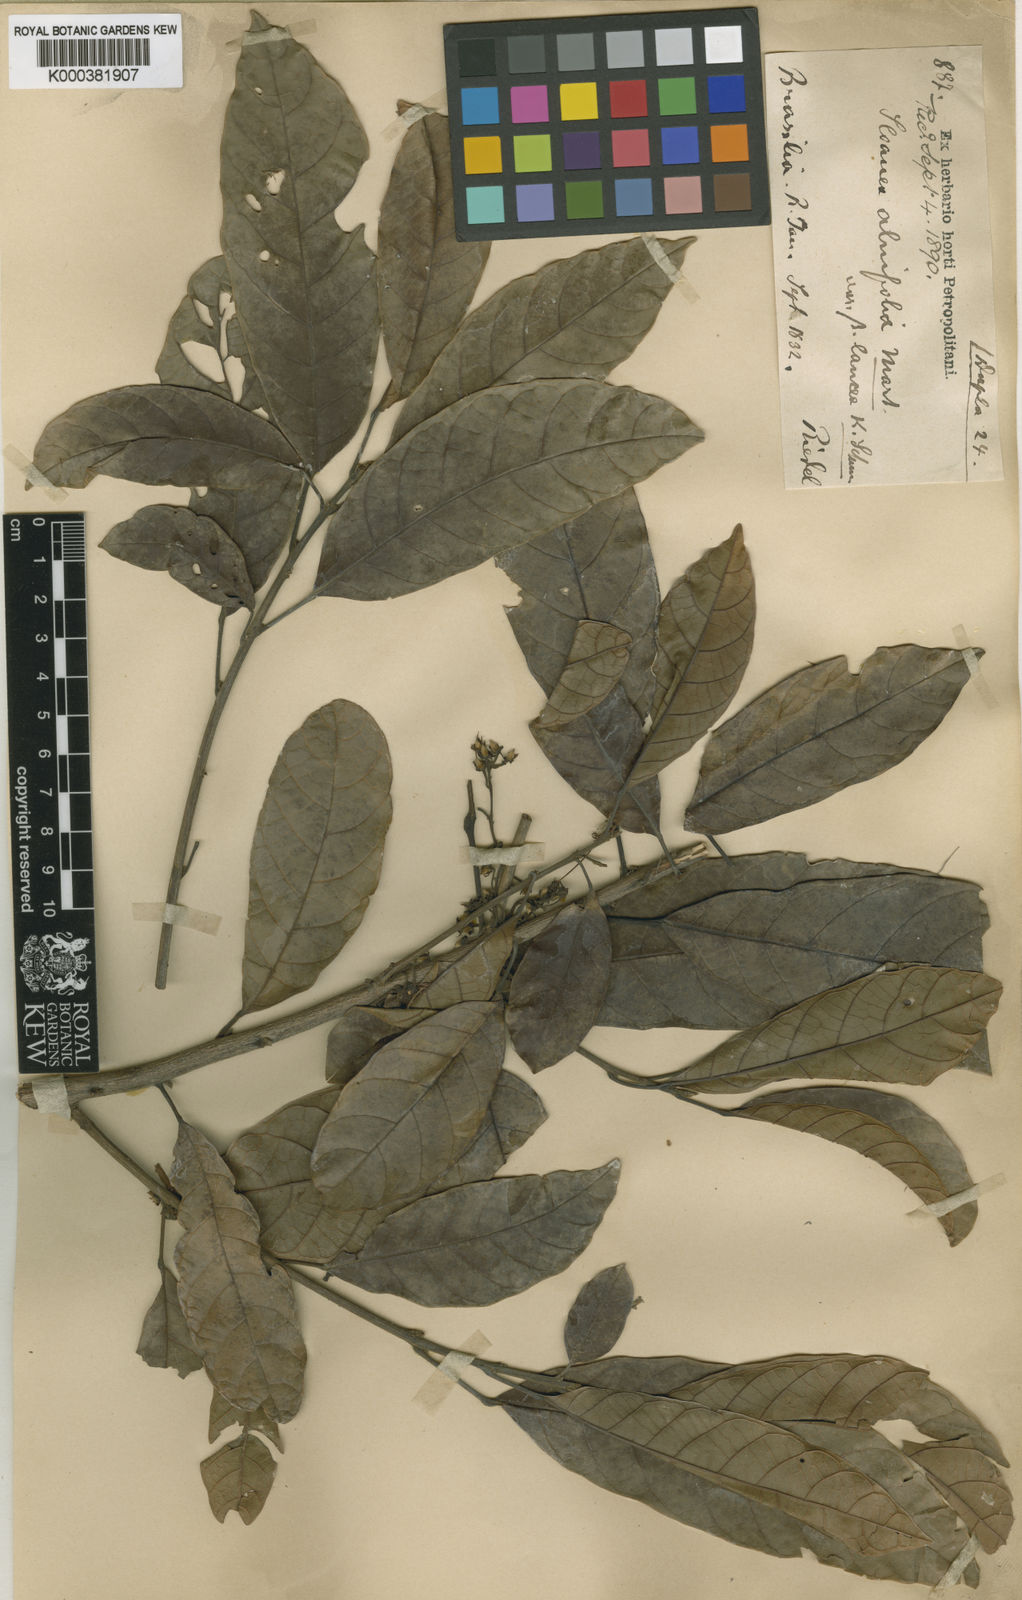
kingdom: Plantae
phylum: Tracheophyta
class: Magnoliopsida
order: Oxalidales
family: Elaeocarpaceae
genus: Sloanea
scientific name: Sloanea guianensis
